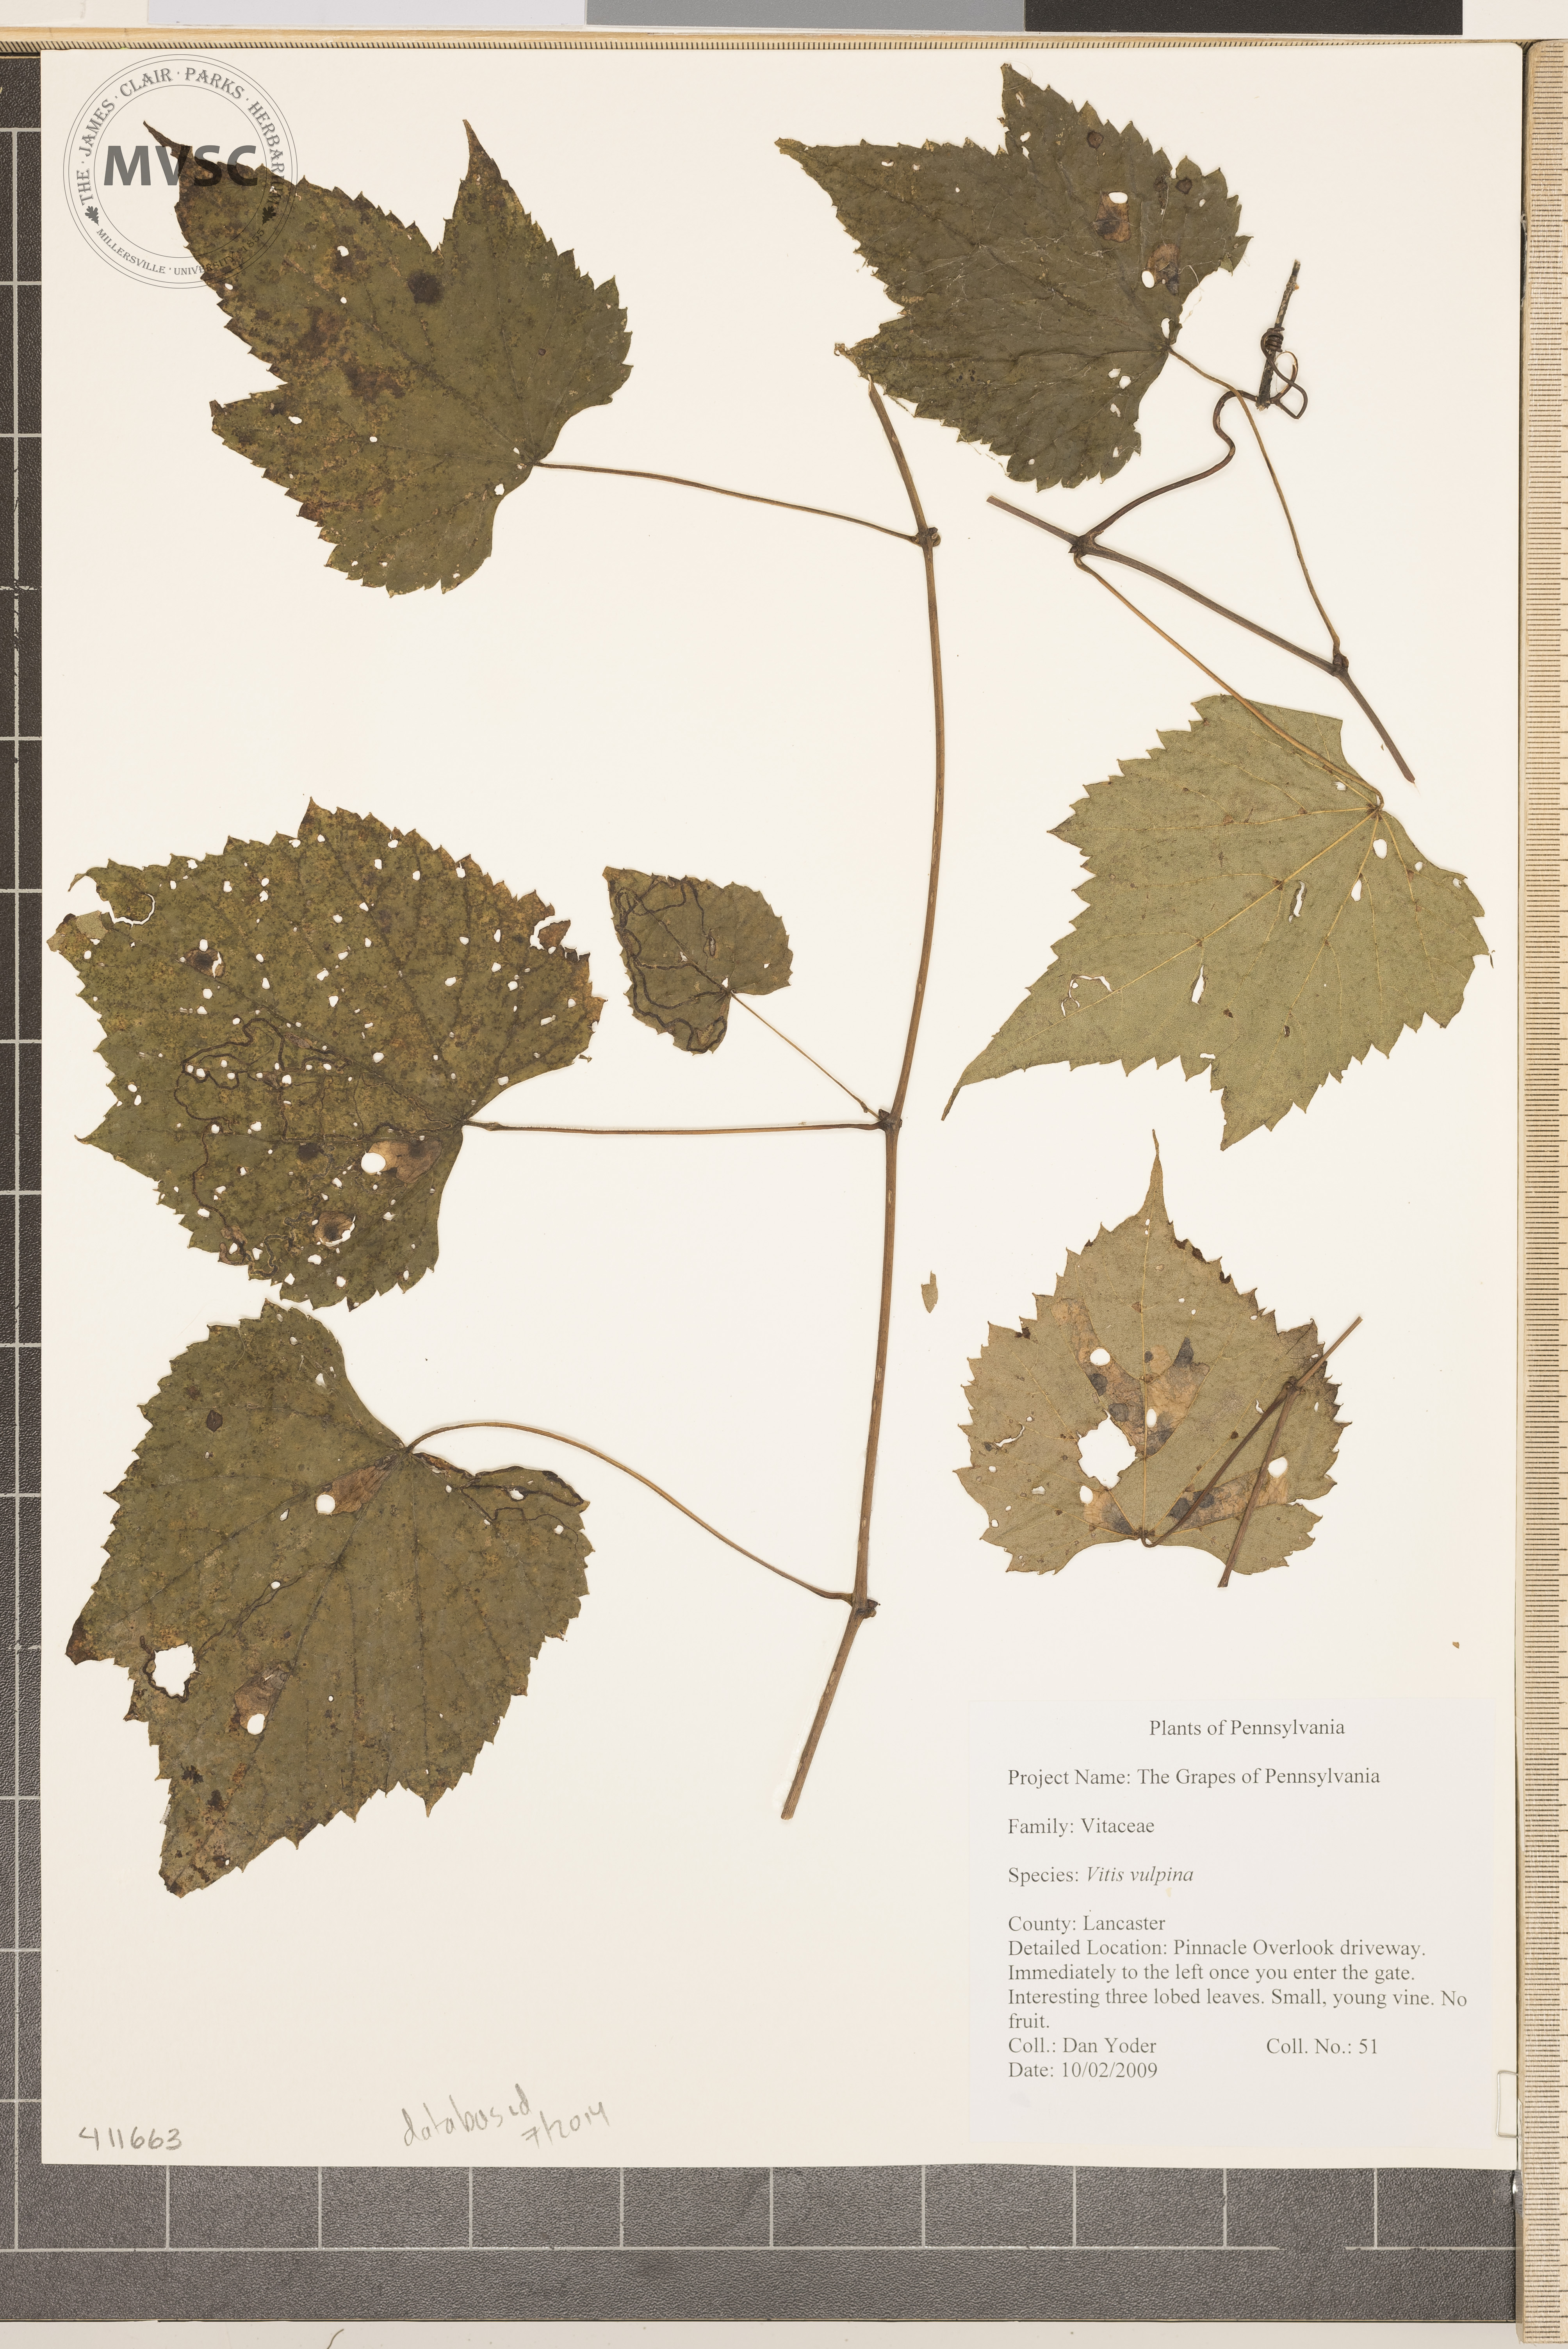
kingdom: Plantae
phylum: Tracheophyta
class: Magnoliopsida
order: Vitales
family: Vitaceae
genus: Vitis
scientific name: Vitis vulpina
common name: Frost Grape
